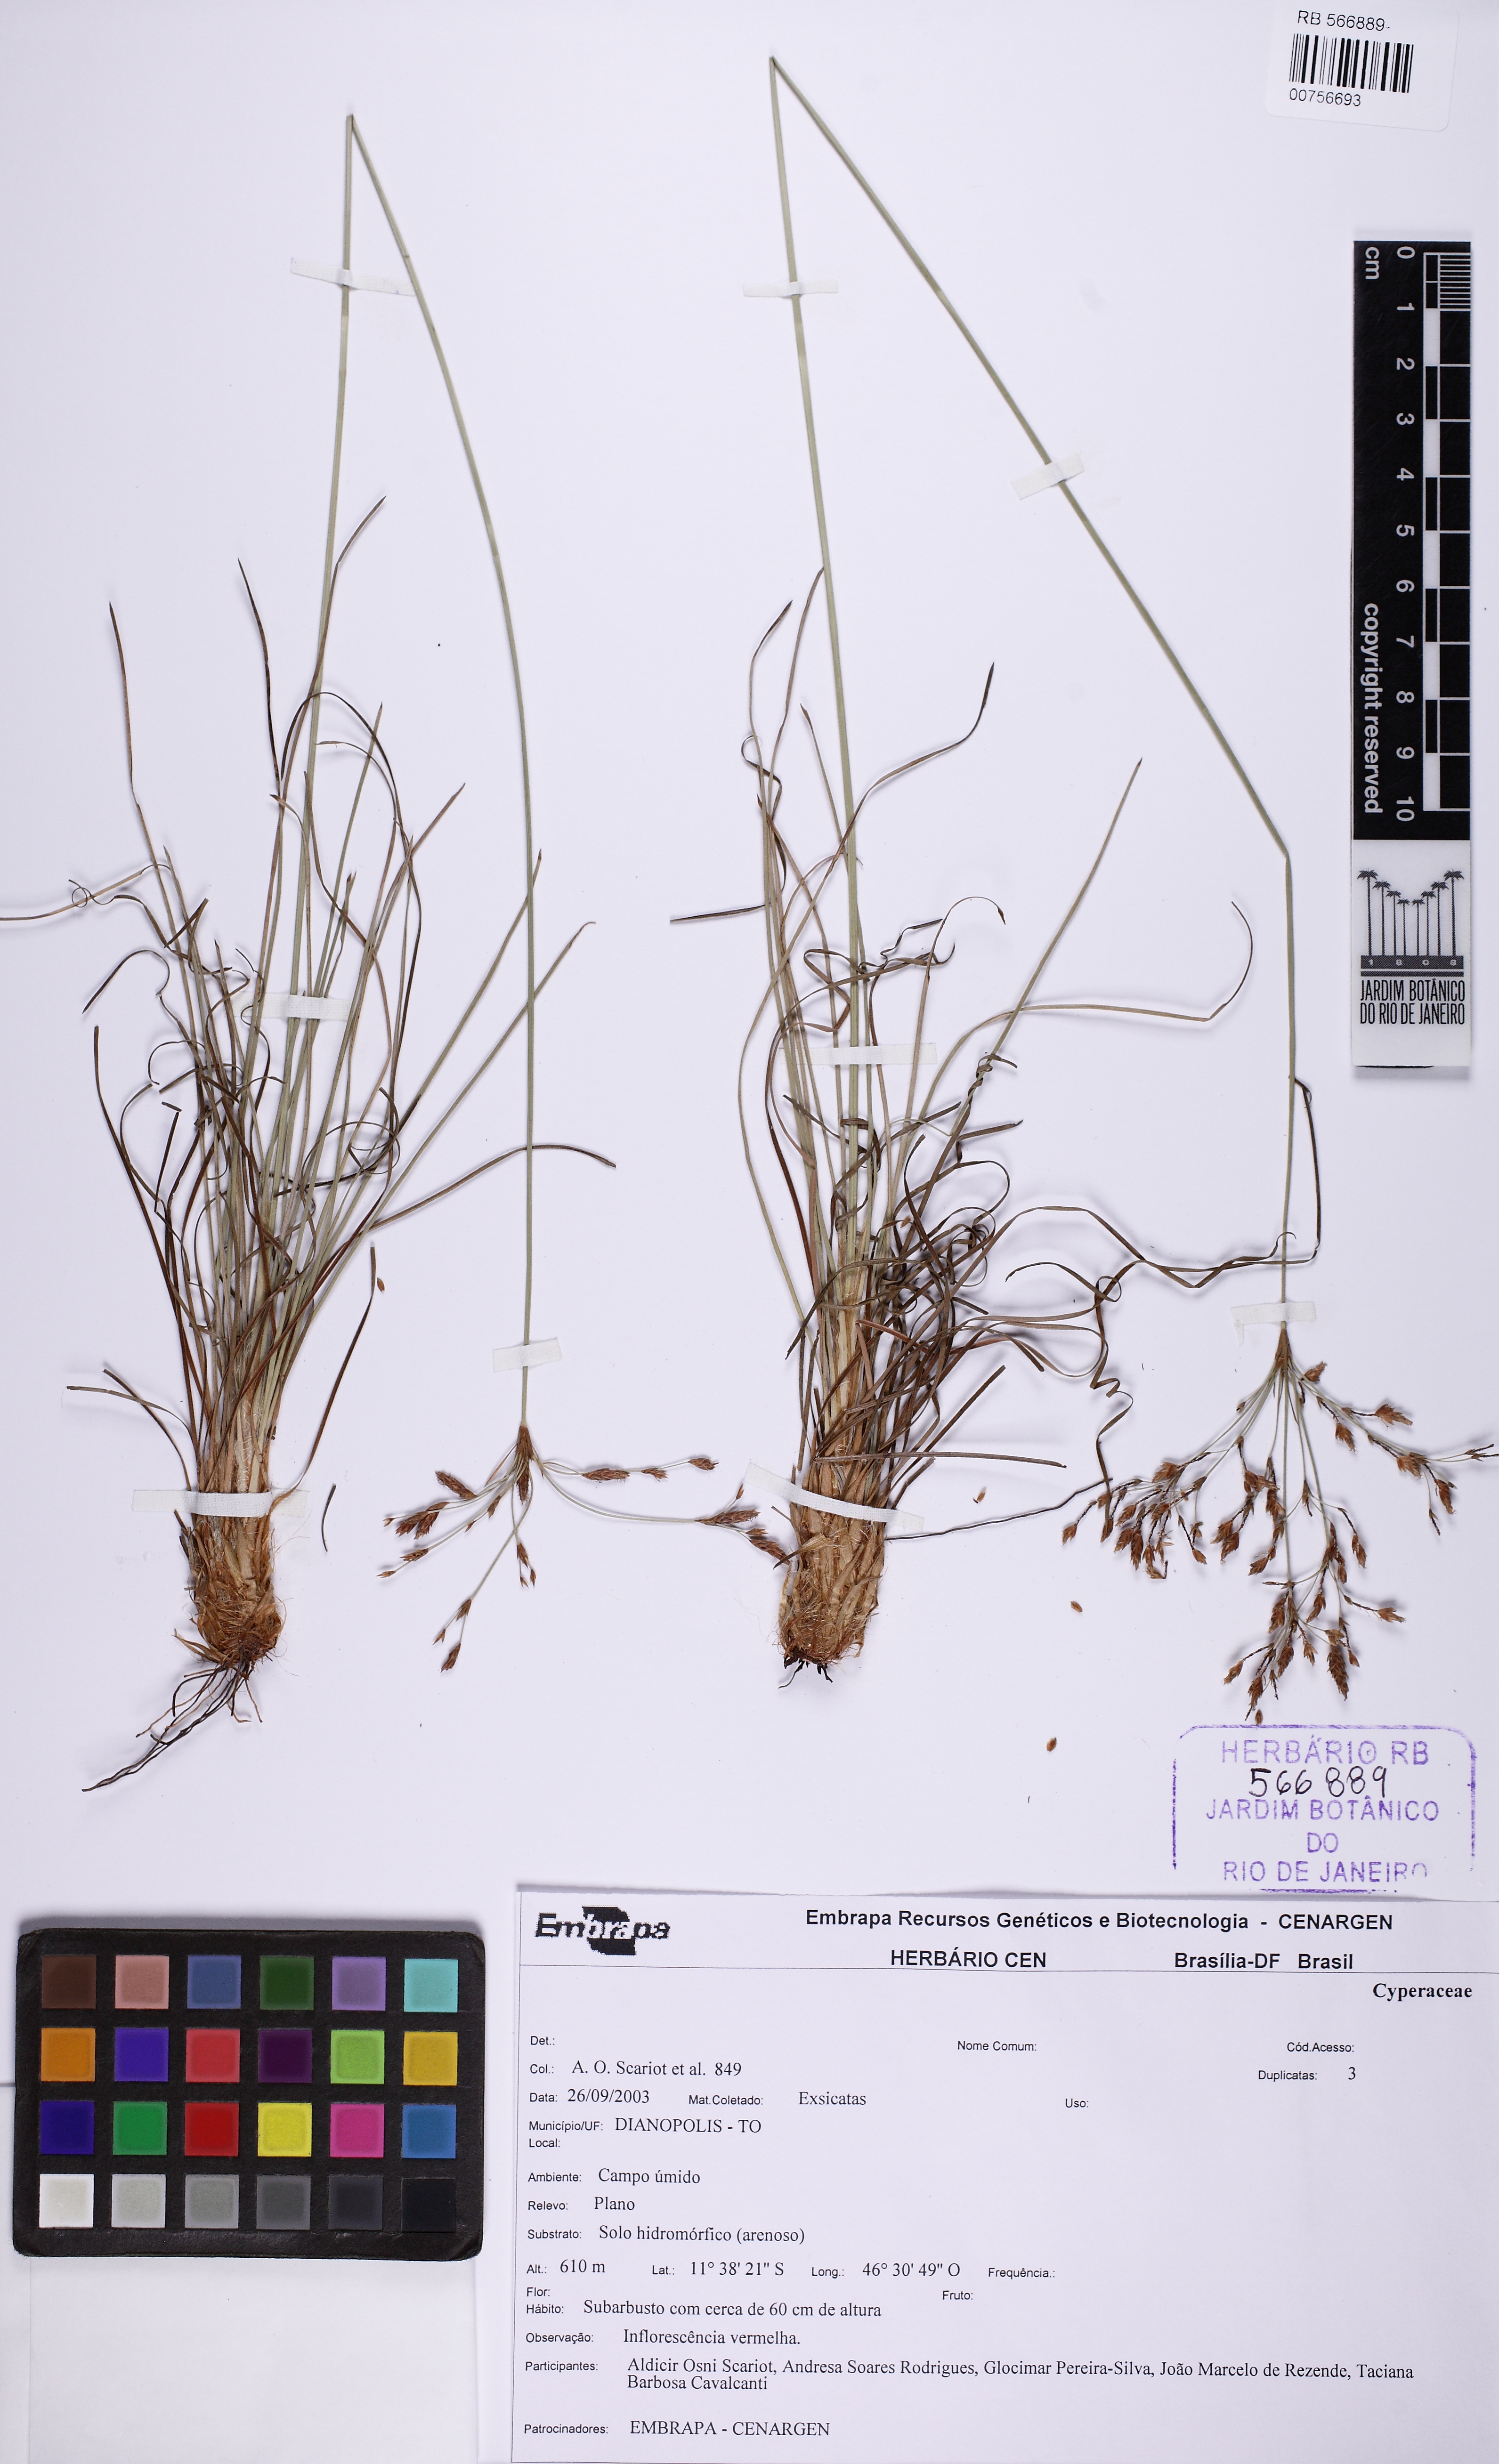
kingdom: Plantae
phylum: Tracheophyta
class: Liliopsida
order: Poales
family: Cyperaceae
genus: Bulbostylis
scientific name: Bulbostylis jacobinae
